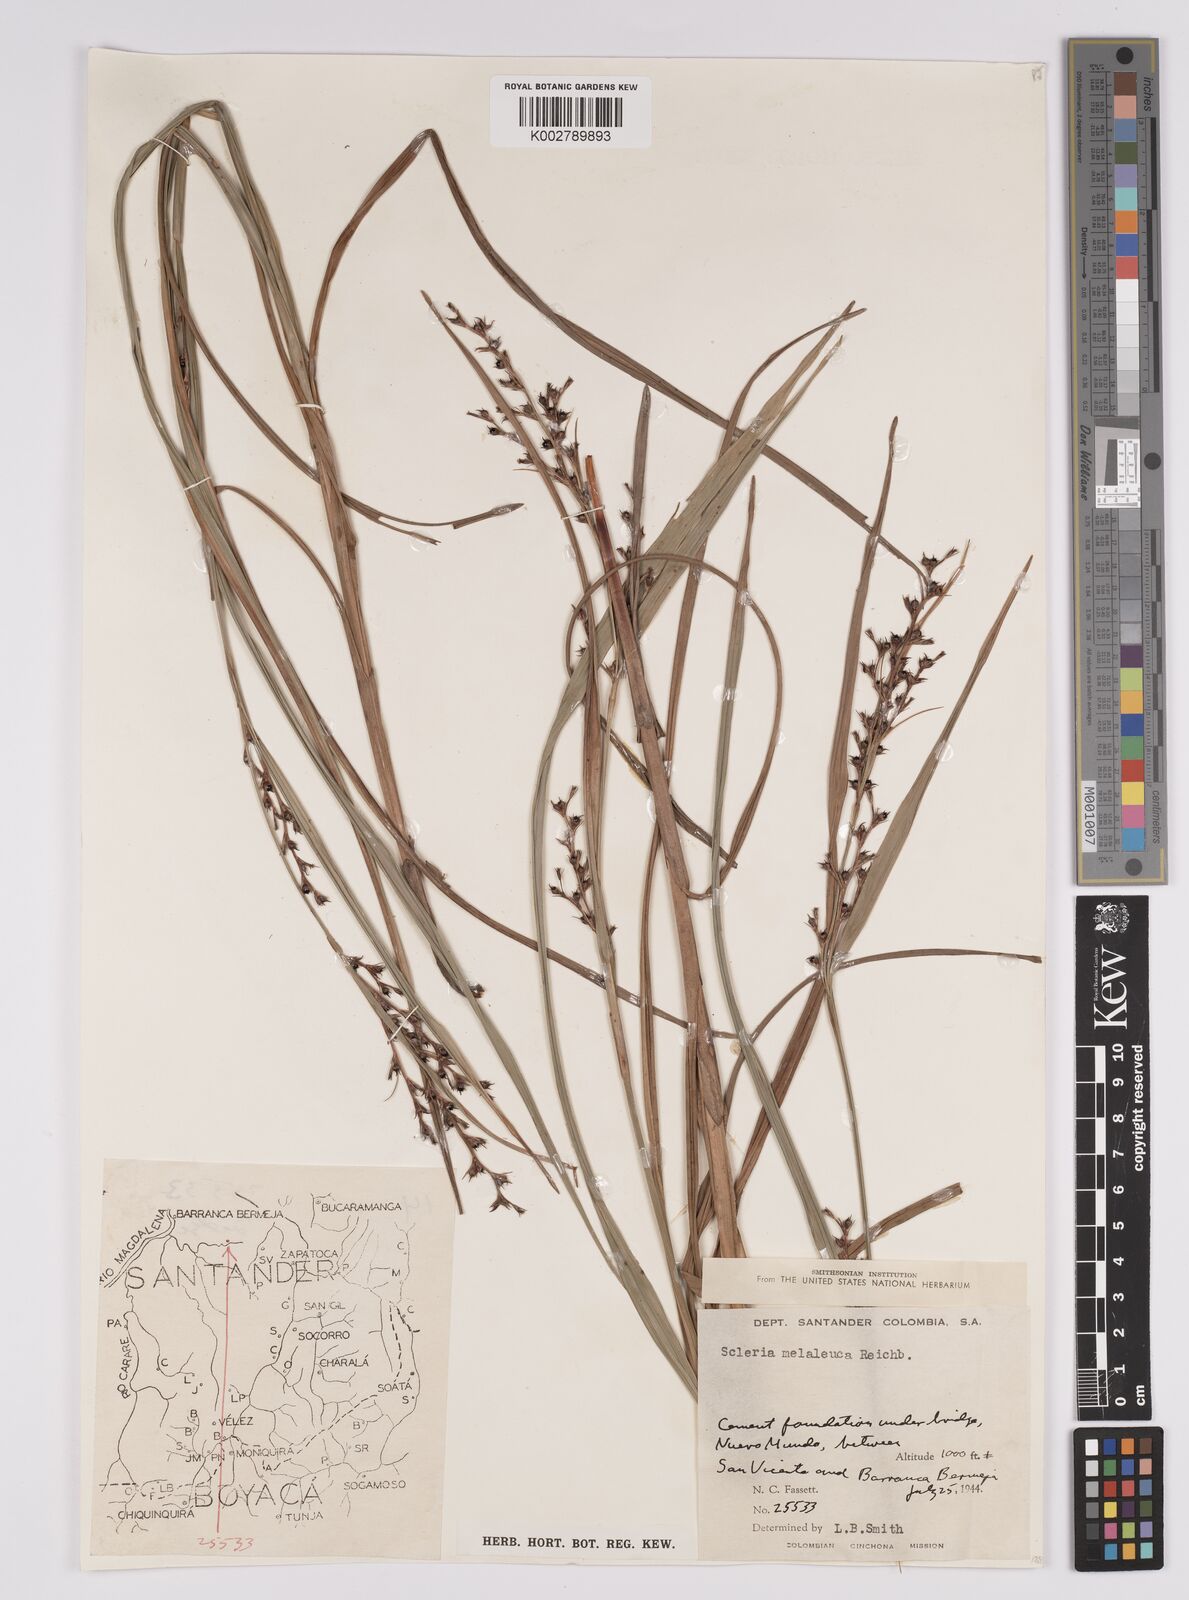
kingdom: Plantae
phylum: Tracheophyta
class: Liliopsida
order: Poales
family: Cyperaceae
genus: Scleria
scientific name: Scleria gaertneri
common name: Cortadera blanca
